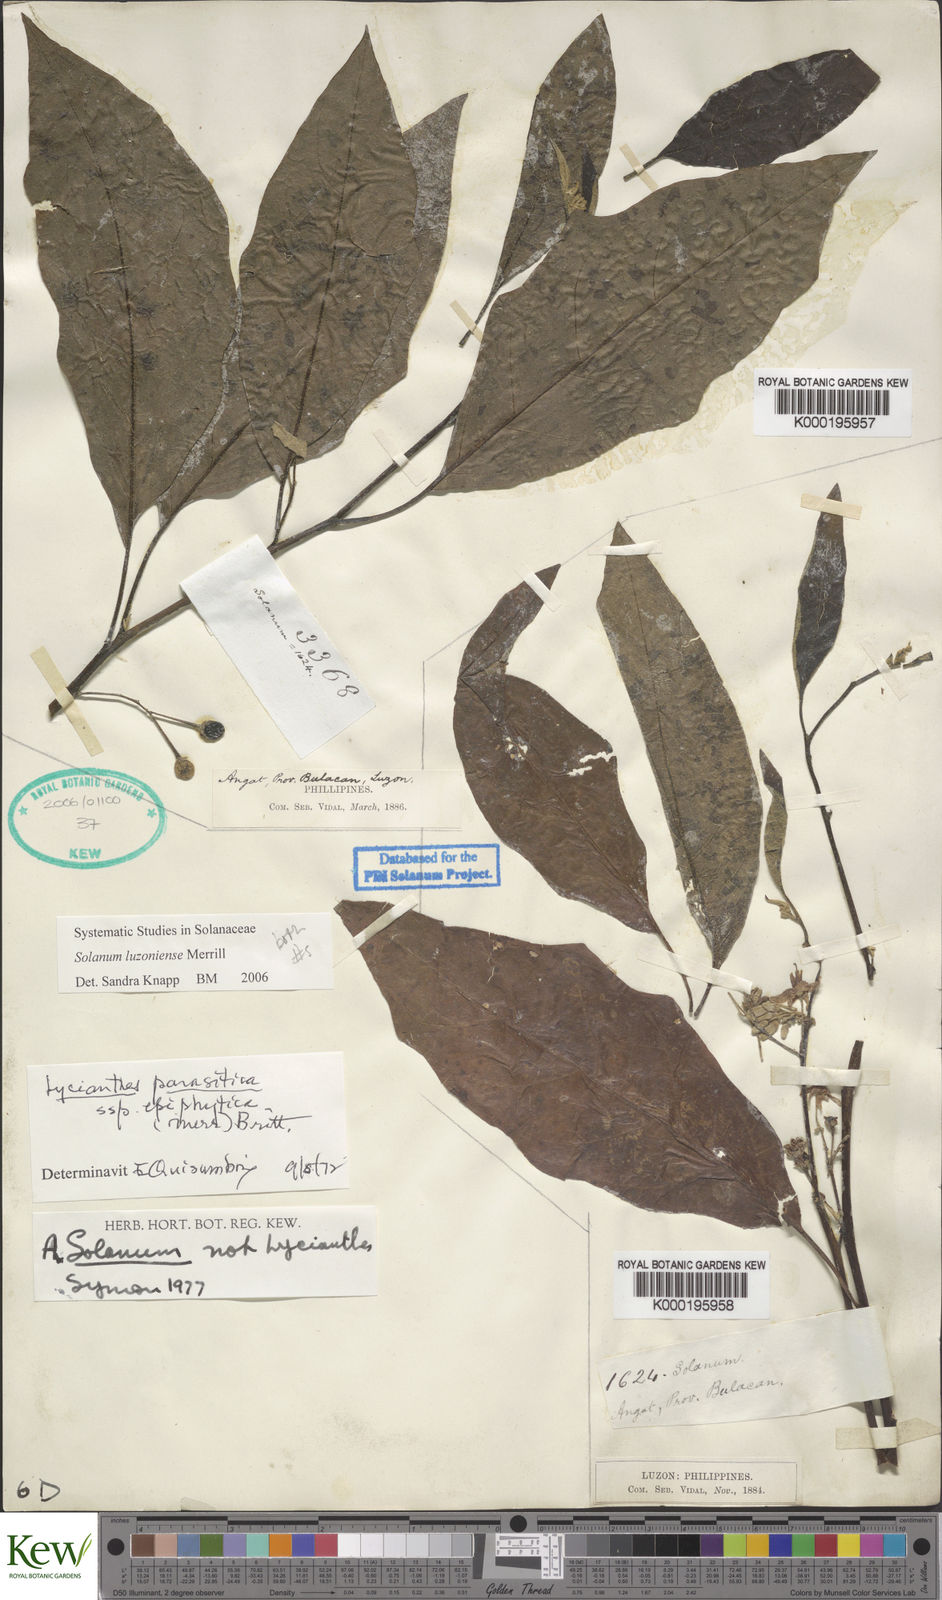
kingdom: Plantae
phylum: Tracheophyta
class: Magnoliopsida
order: Solanales
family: Solanaceae
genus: Solanum
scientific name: Solanum retrorsum
